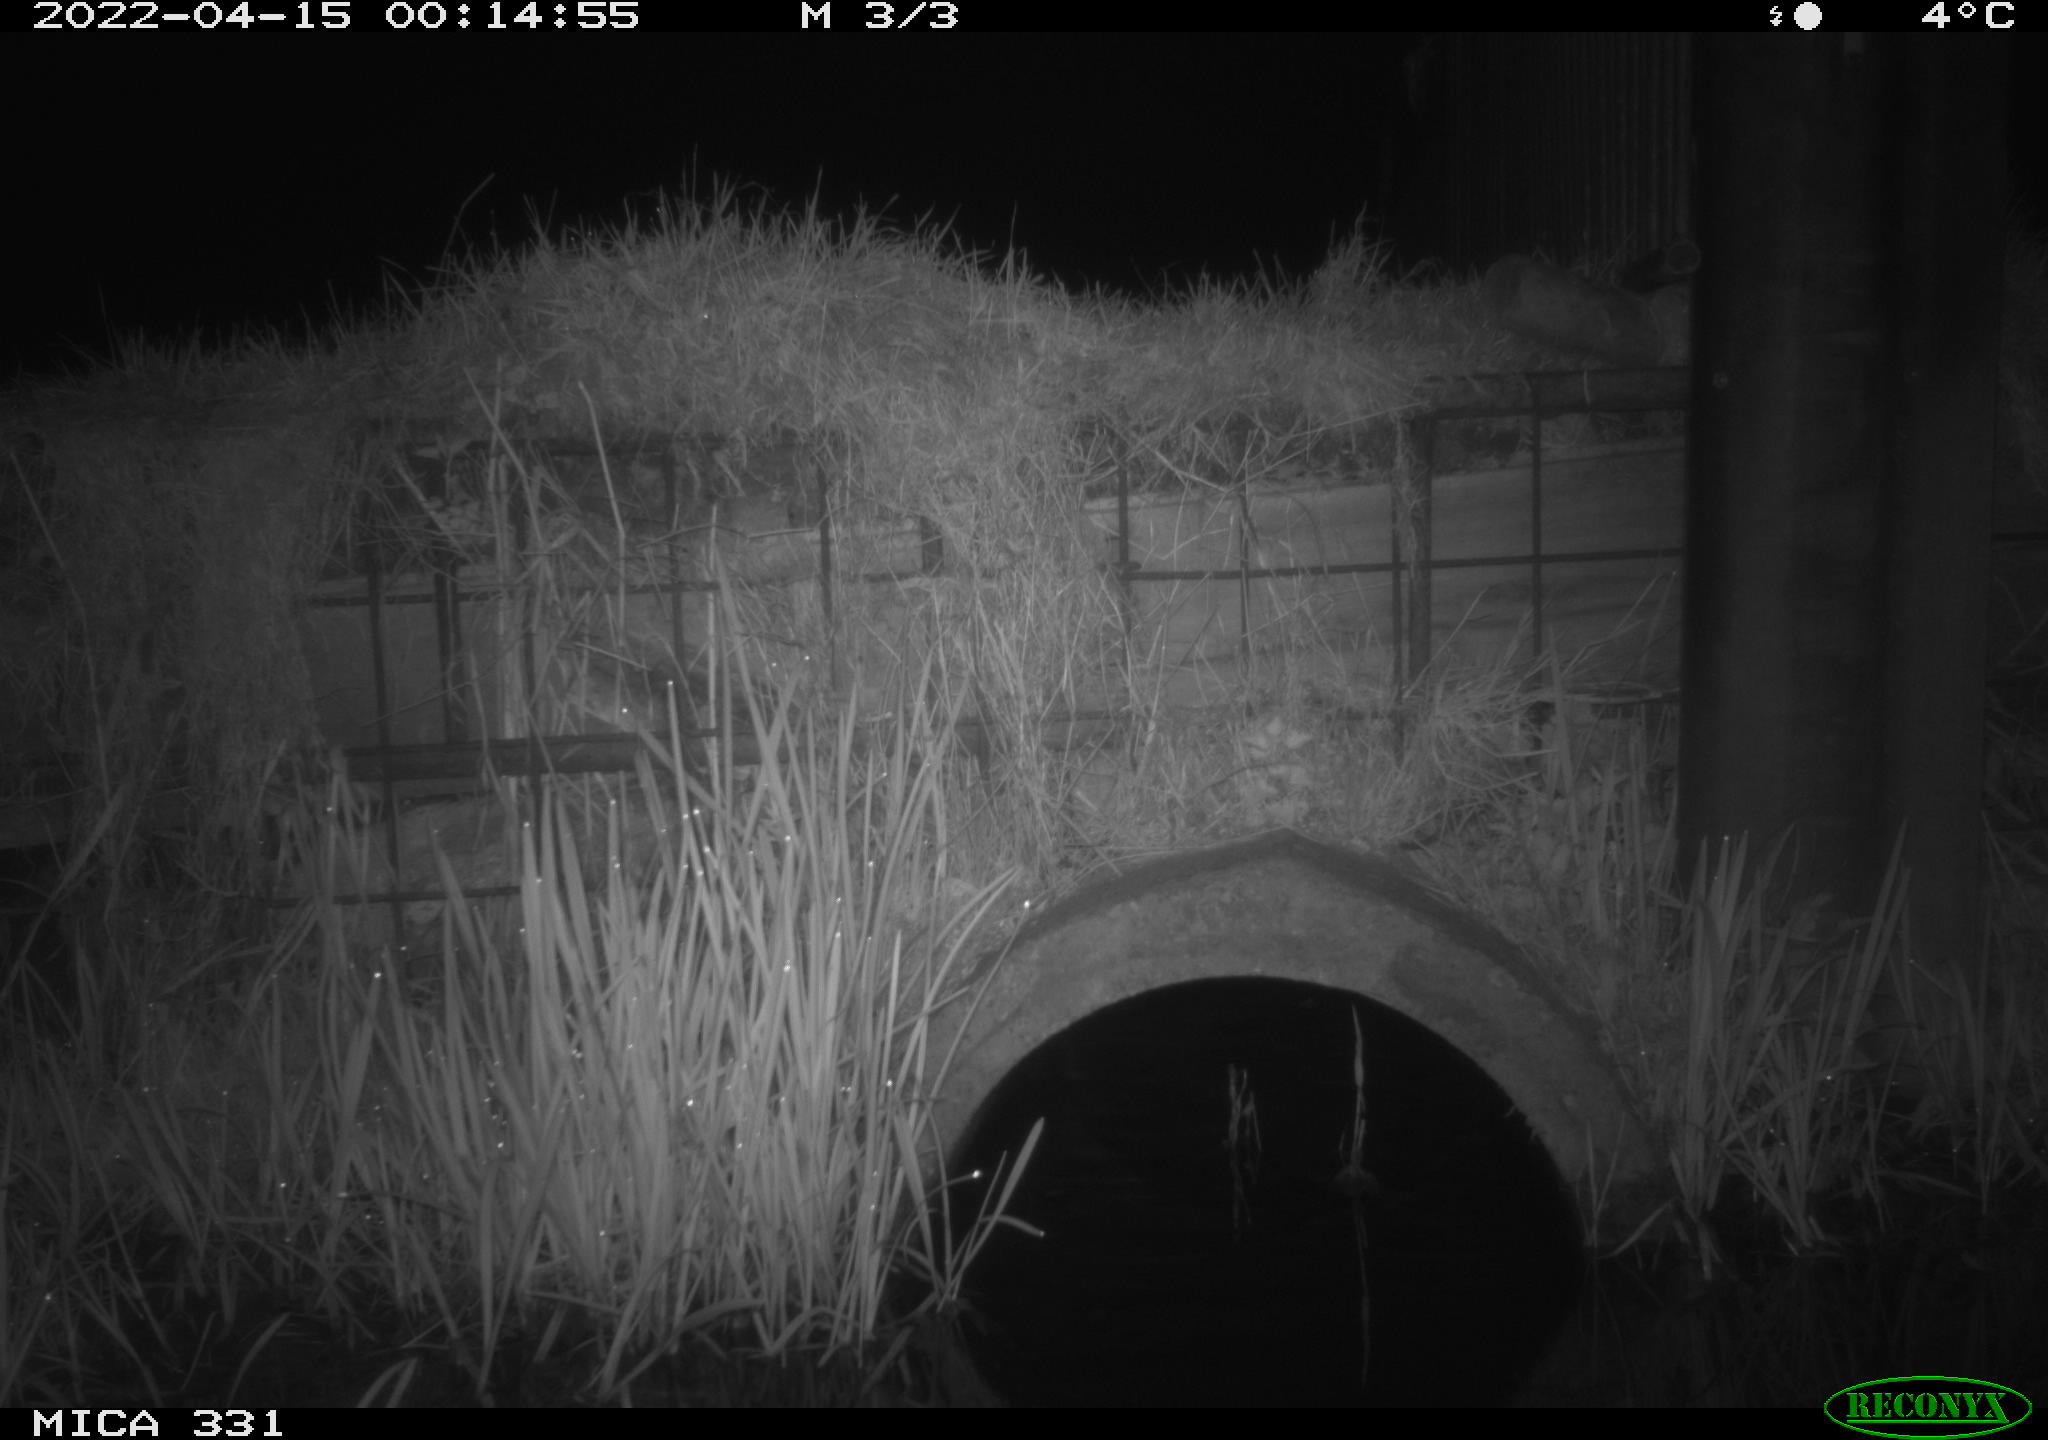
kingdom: Animalia
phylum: Chordata
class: Mammalia
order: Rodentia
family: Muridae
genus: Rattus
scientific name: Rattus norvegicus
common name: Brown rat
